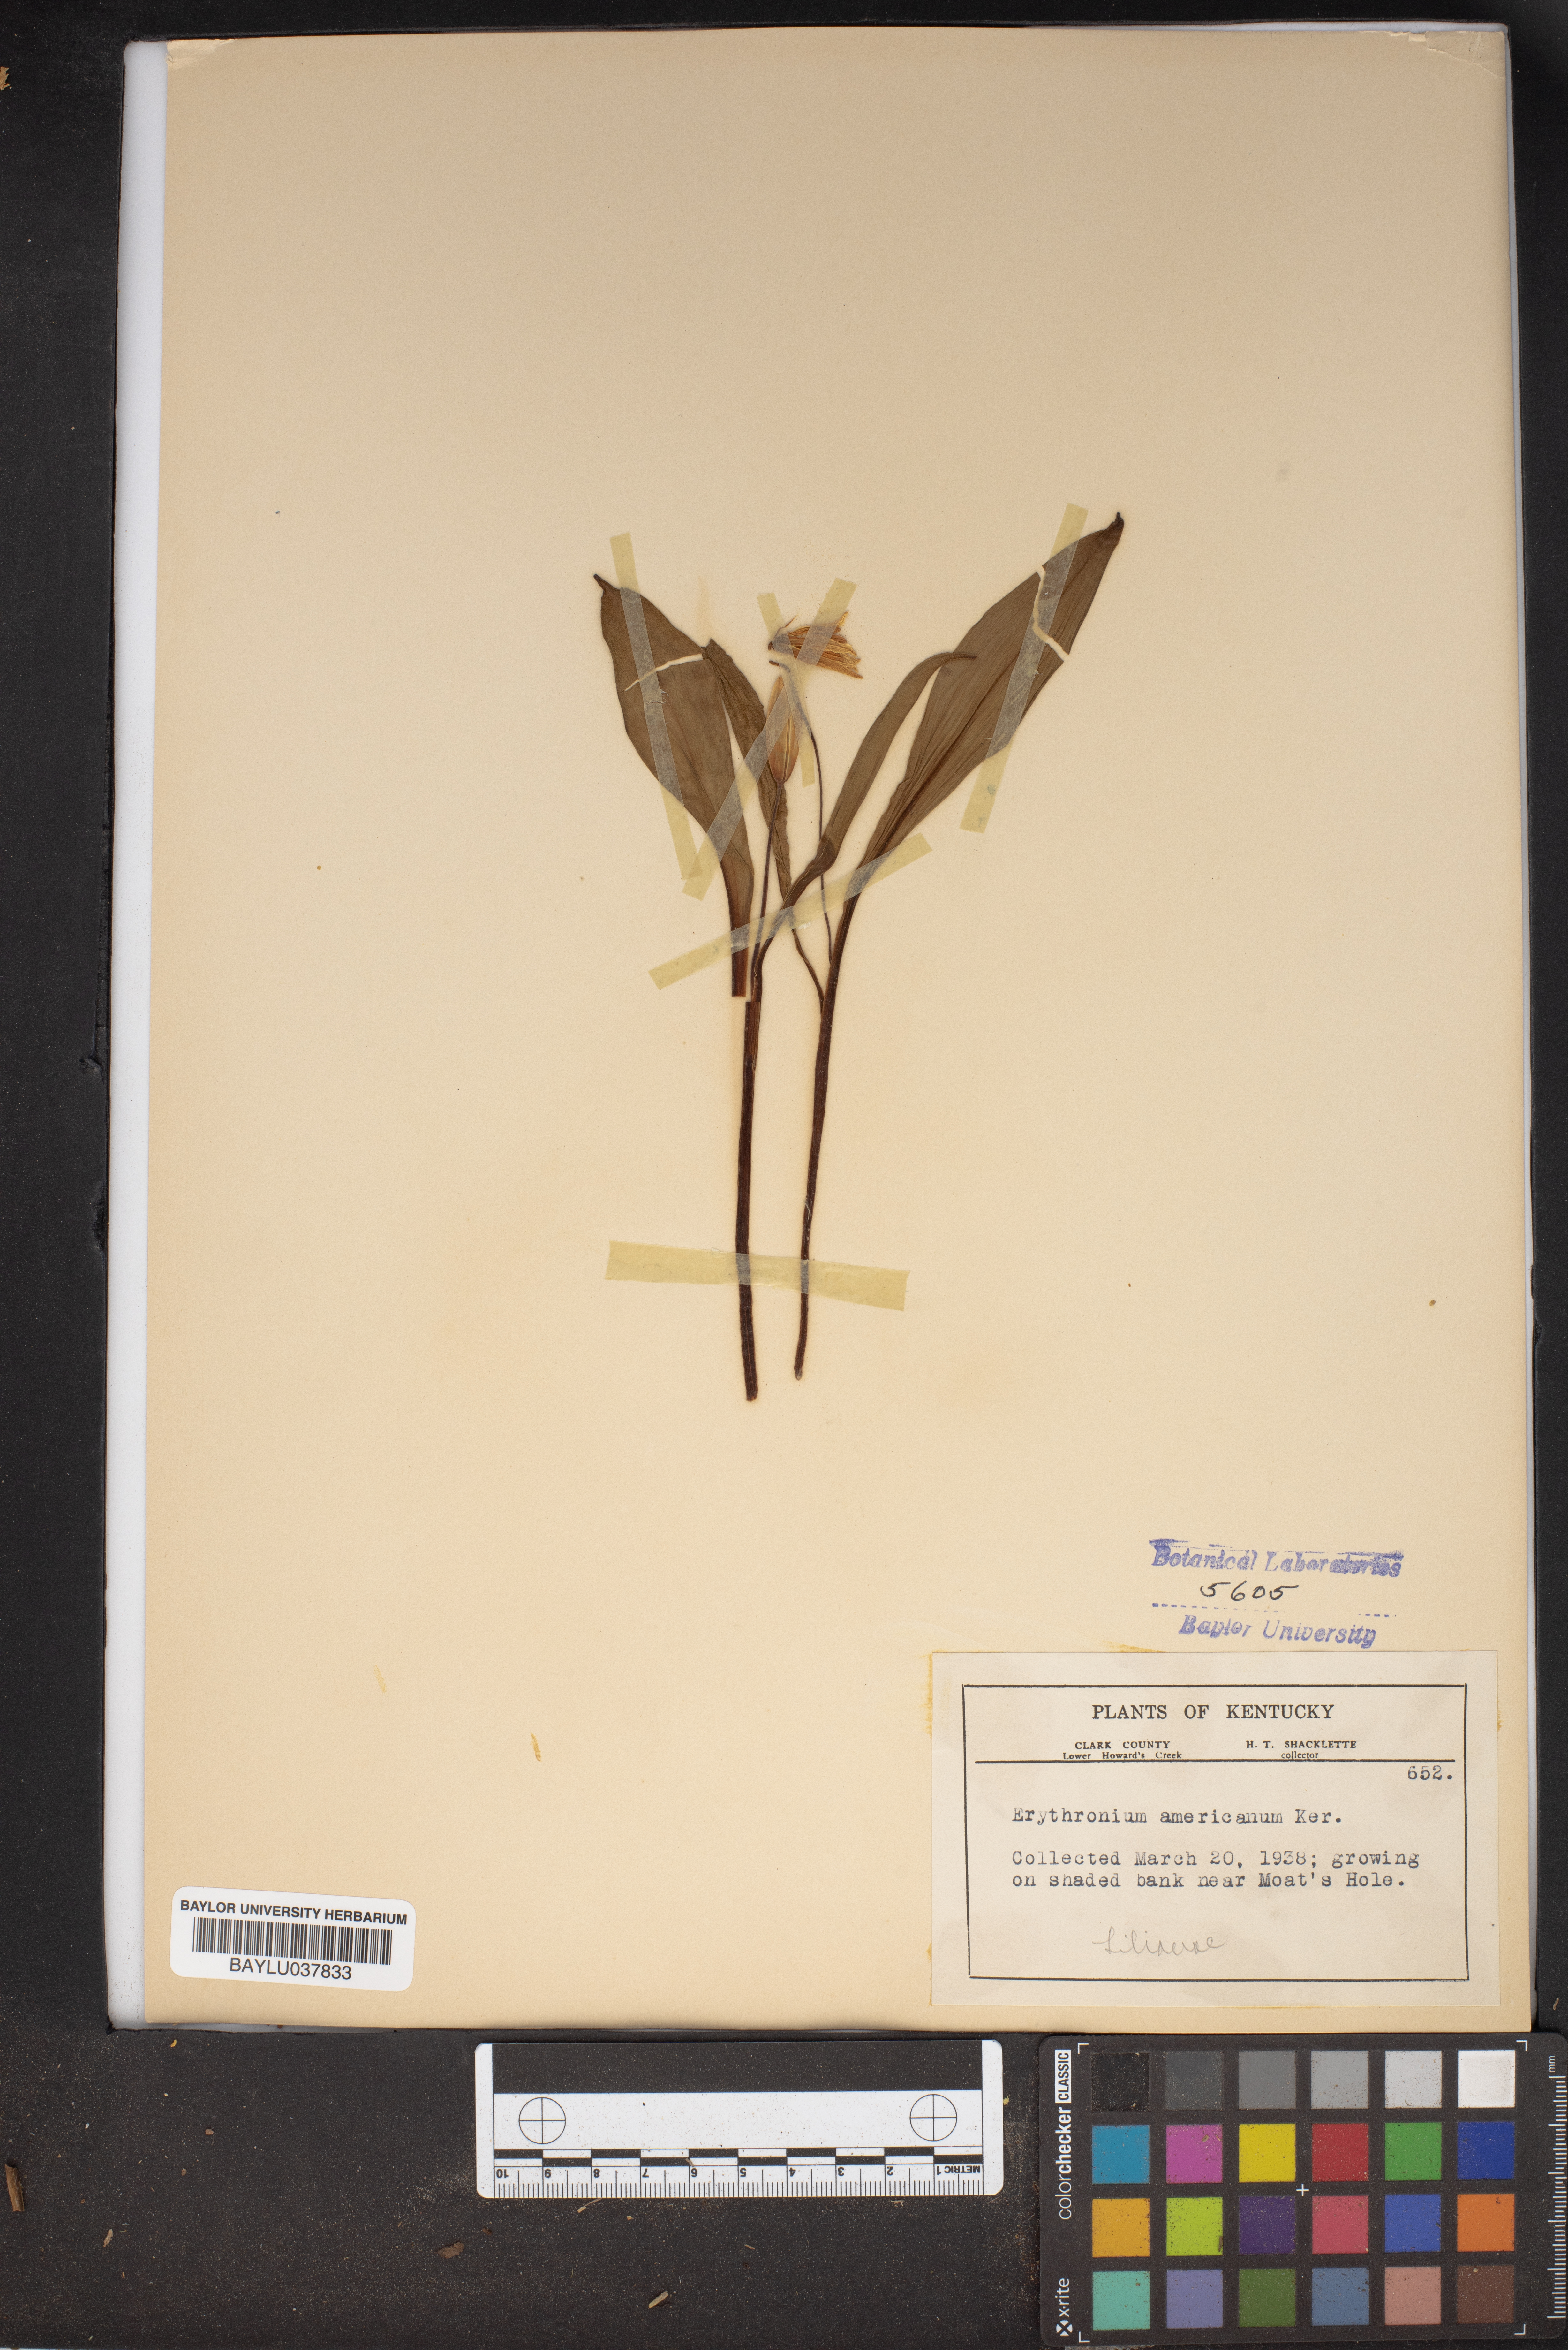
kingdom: Plantae
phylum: Tracheophyta
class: Liliopsida
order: Liliales
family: Liliaceae
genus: Erythronium
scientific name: Erythronium americanum
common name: Yellow adder's-tongue
